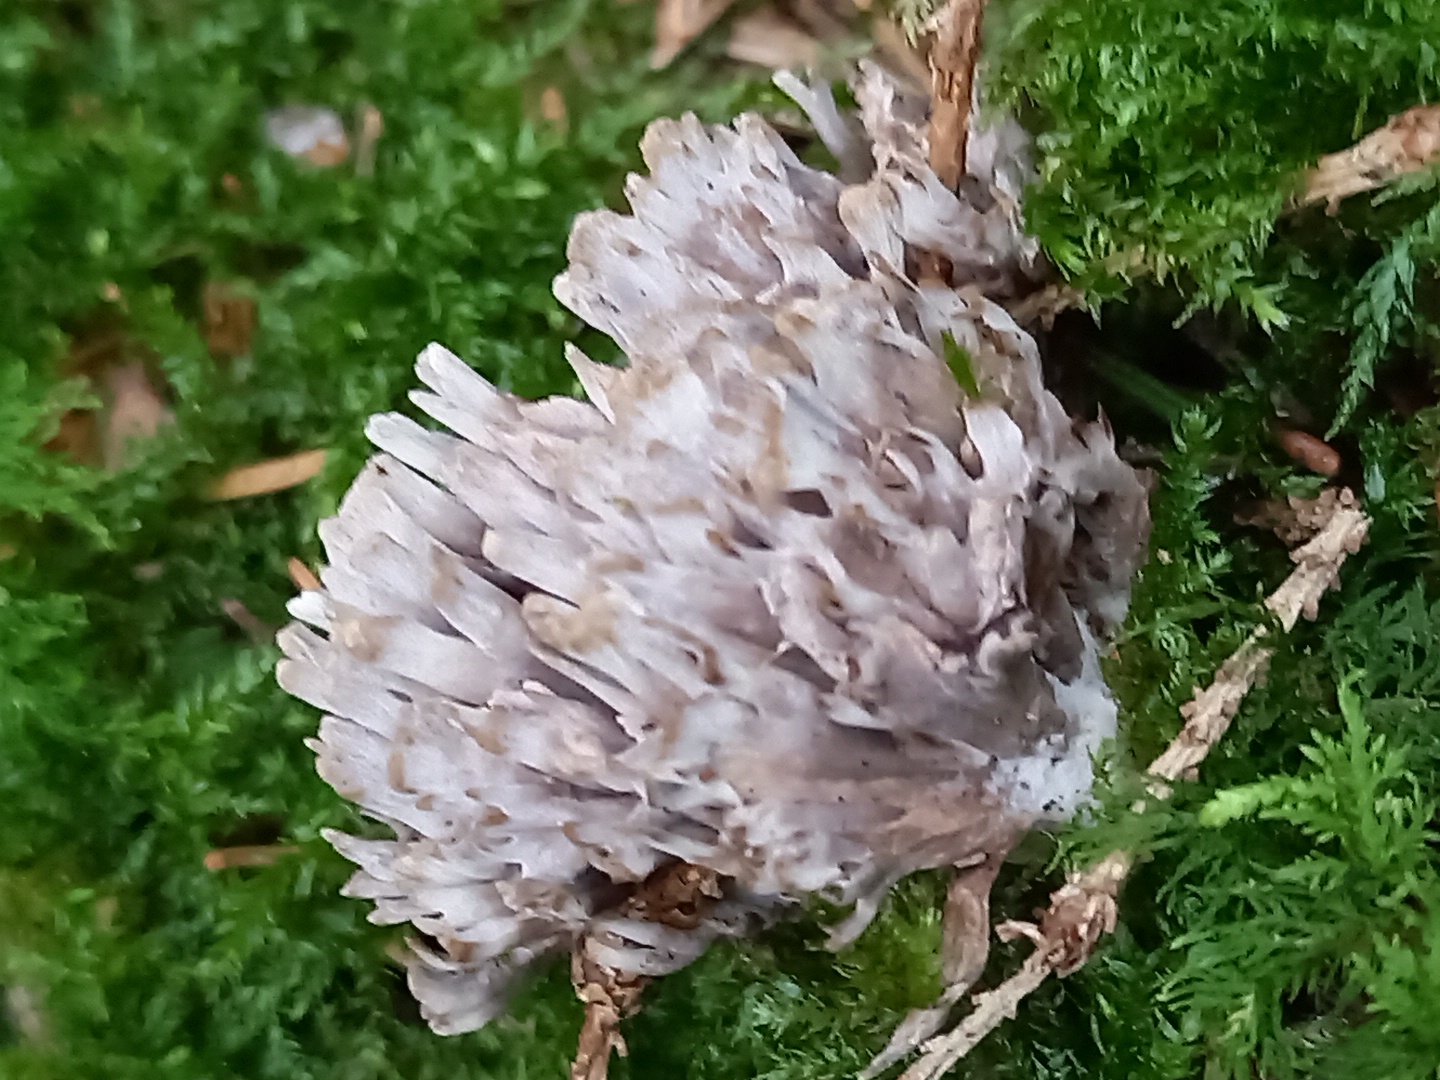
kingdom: Fungi
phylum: Basidiomycota
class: Agaricomycetes
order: Thelephorales
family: Thelephoraceae
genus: Thelephora
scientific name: Thelephora palmata
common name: grenet frynsesvamp
